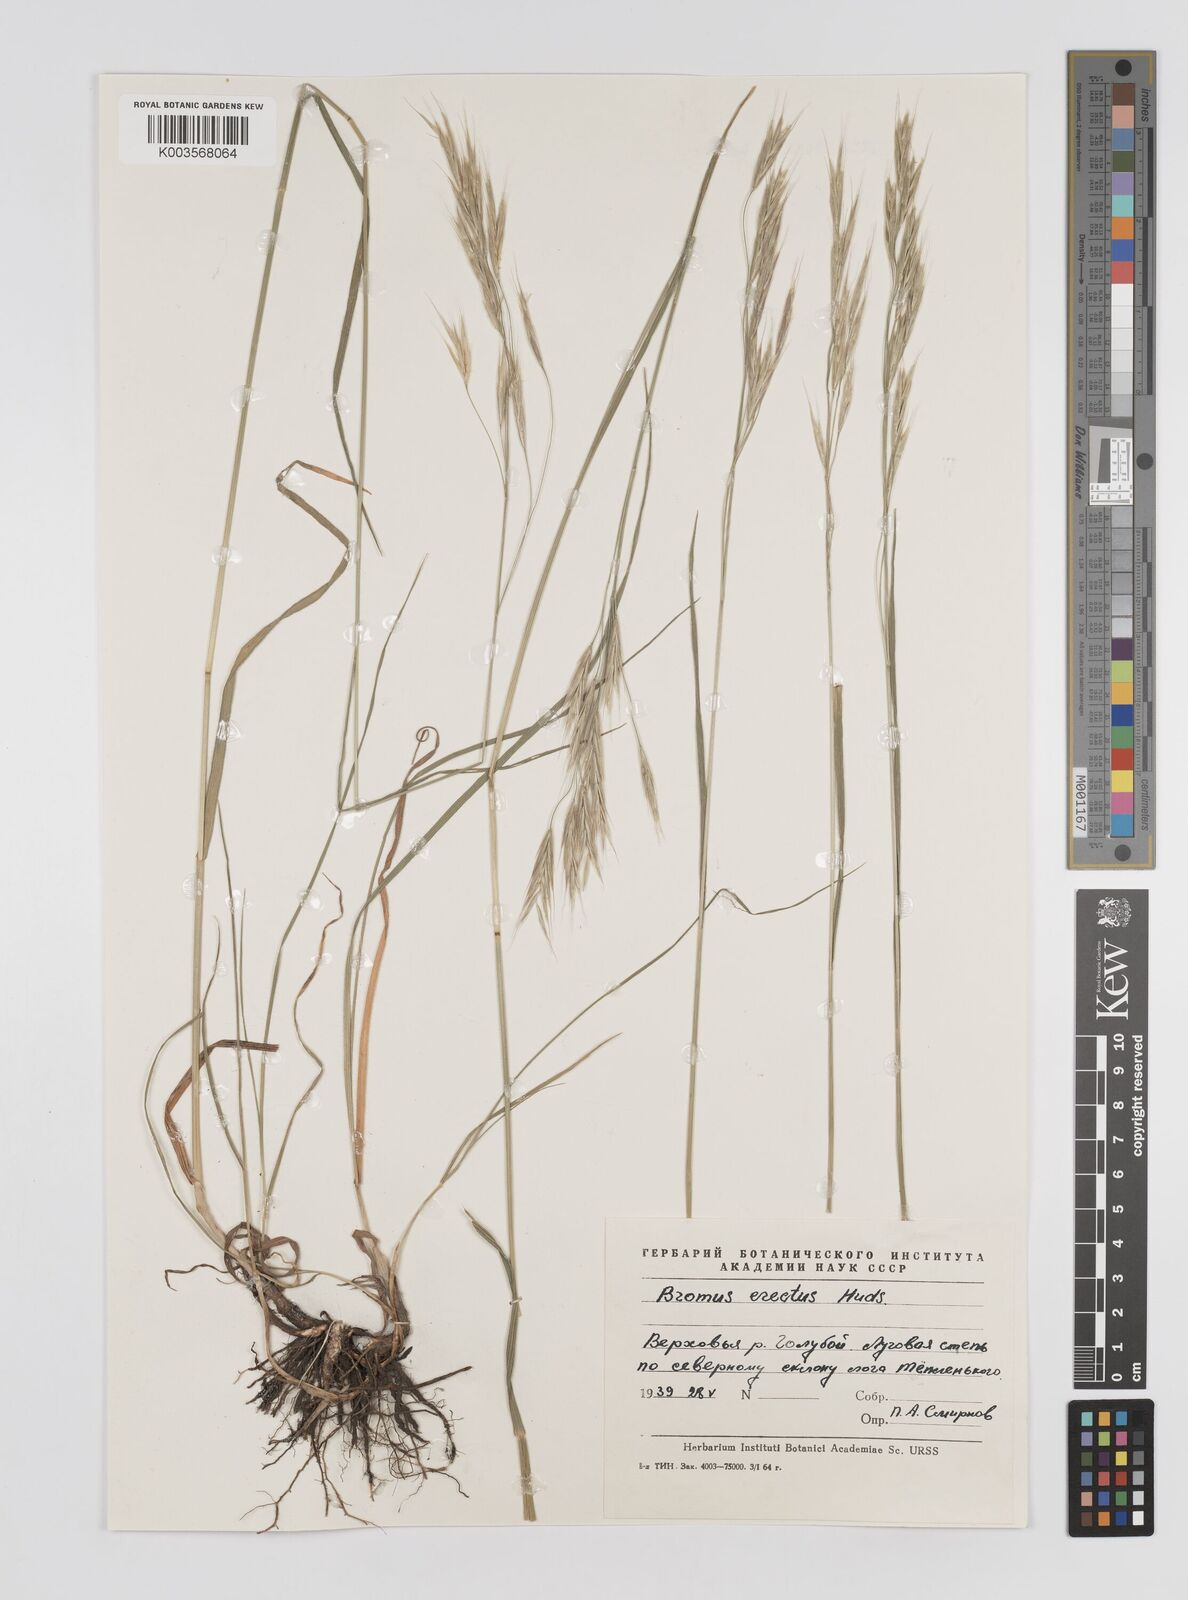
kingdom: Plantae
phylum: Tracheophyta
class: Liliopsida
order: Poales
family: Poaceae
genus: Bromus
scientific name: Bromus erectus
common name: Erect brome
